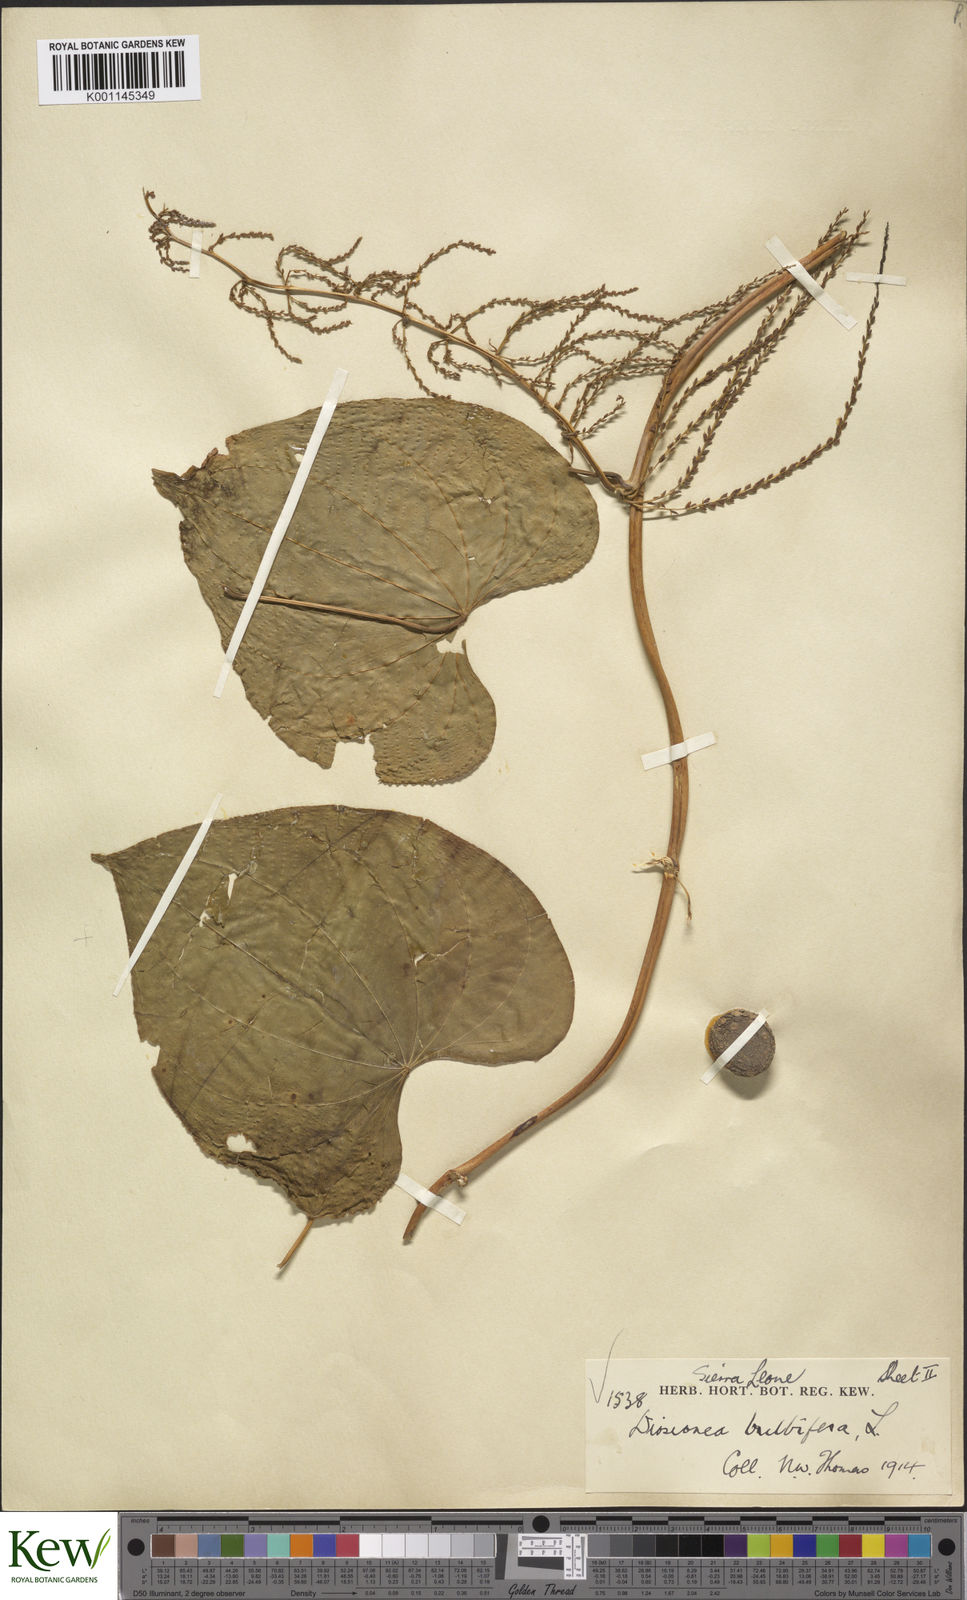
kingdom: Plantae
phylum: Tracheophyta
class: Liliopsida
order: Dioscoreales
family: Dioscoreaceae
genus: Dioscorea
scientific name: Dioscorea bulbifera
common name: Air yam
